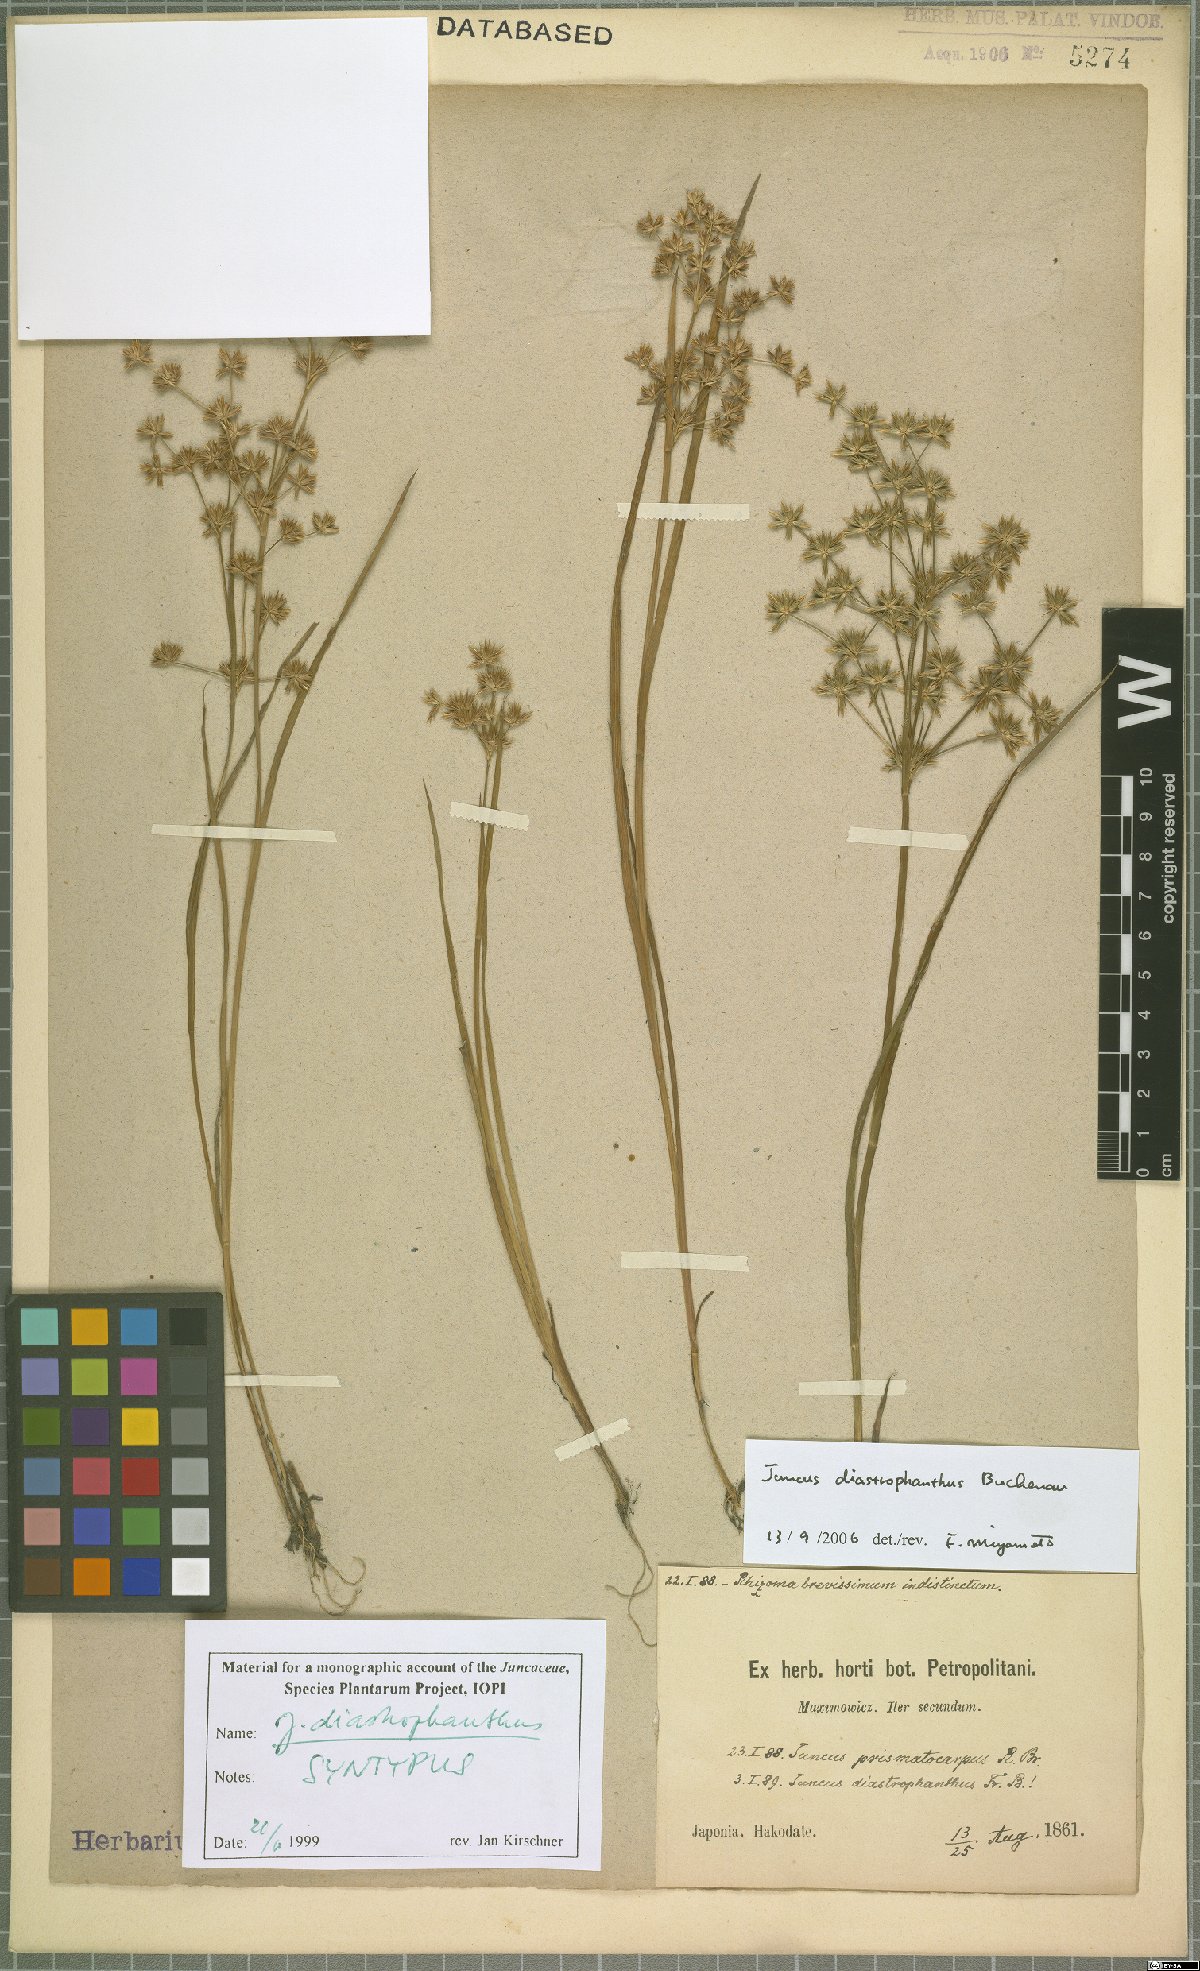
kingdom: Plantae
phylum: Tracheophyta
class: Liliopsida
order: Poales
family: Juncaceae
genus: Juncus
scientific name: Juncus diastrophanthus
